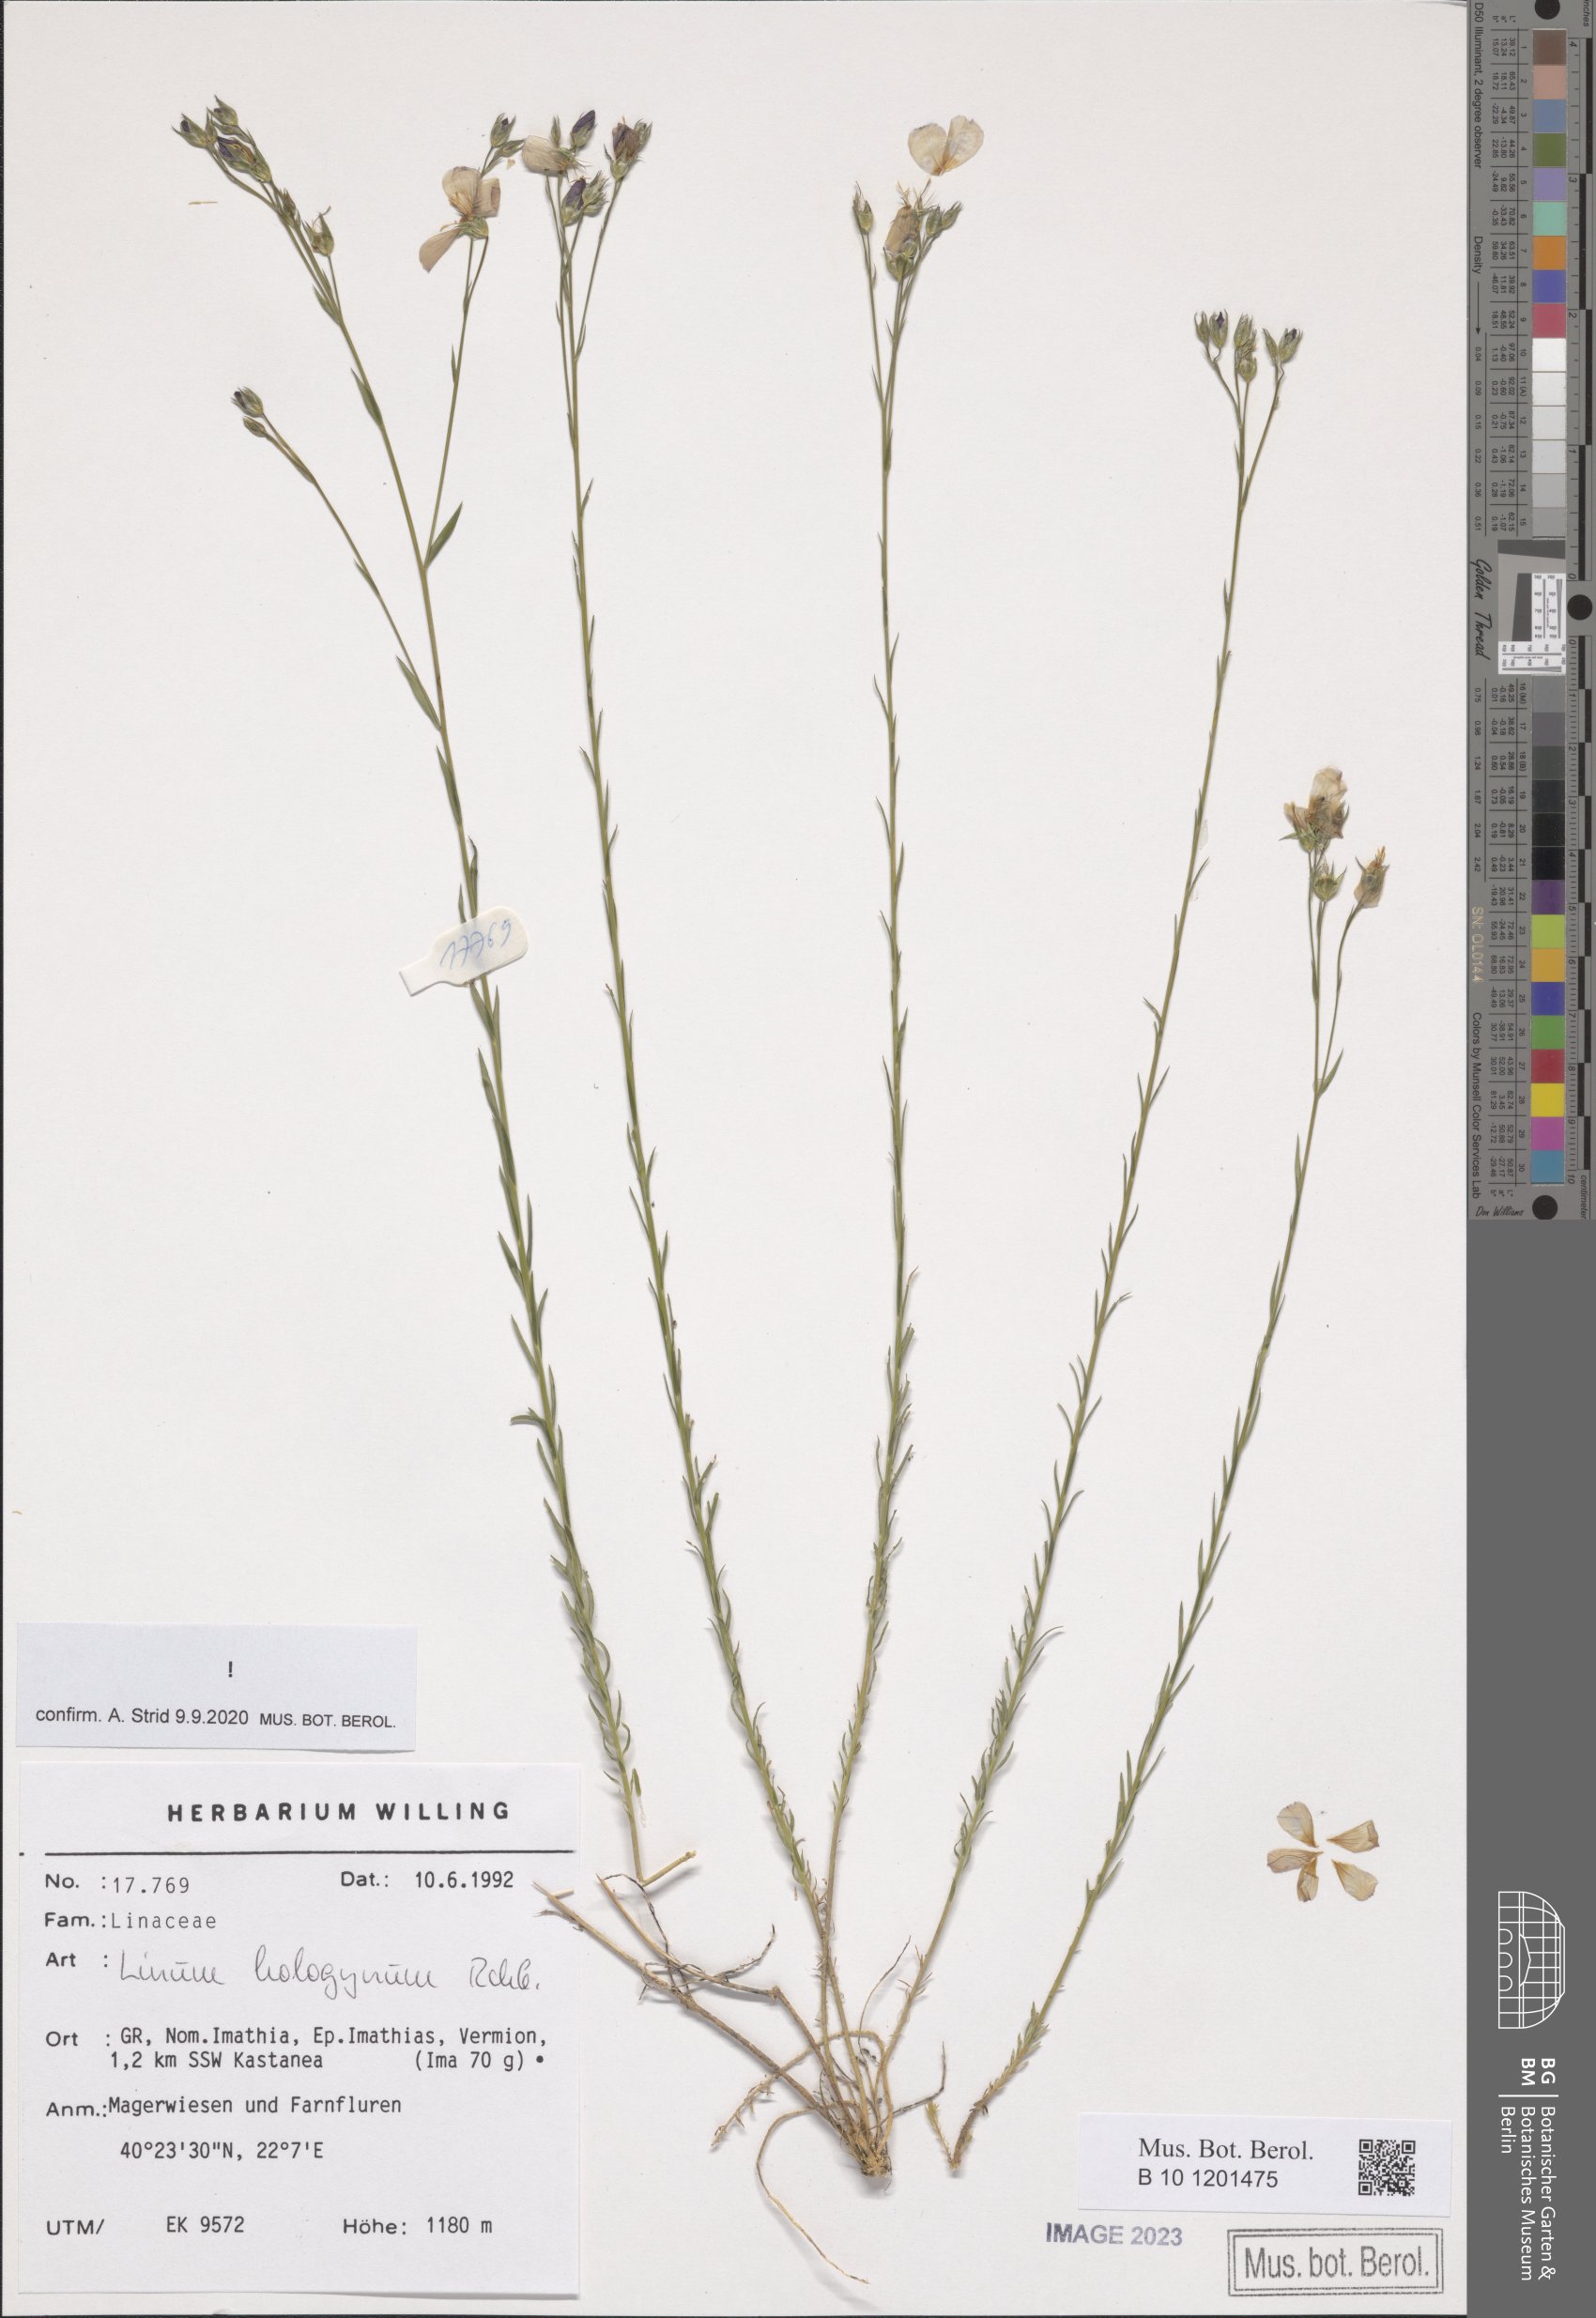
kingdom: Plantae
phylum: Tracheophyta
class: Magnoliopsida
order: Malpighiales
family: Linaceae
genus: Linum
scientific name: Linum hologynum
